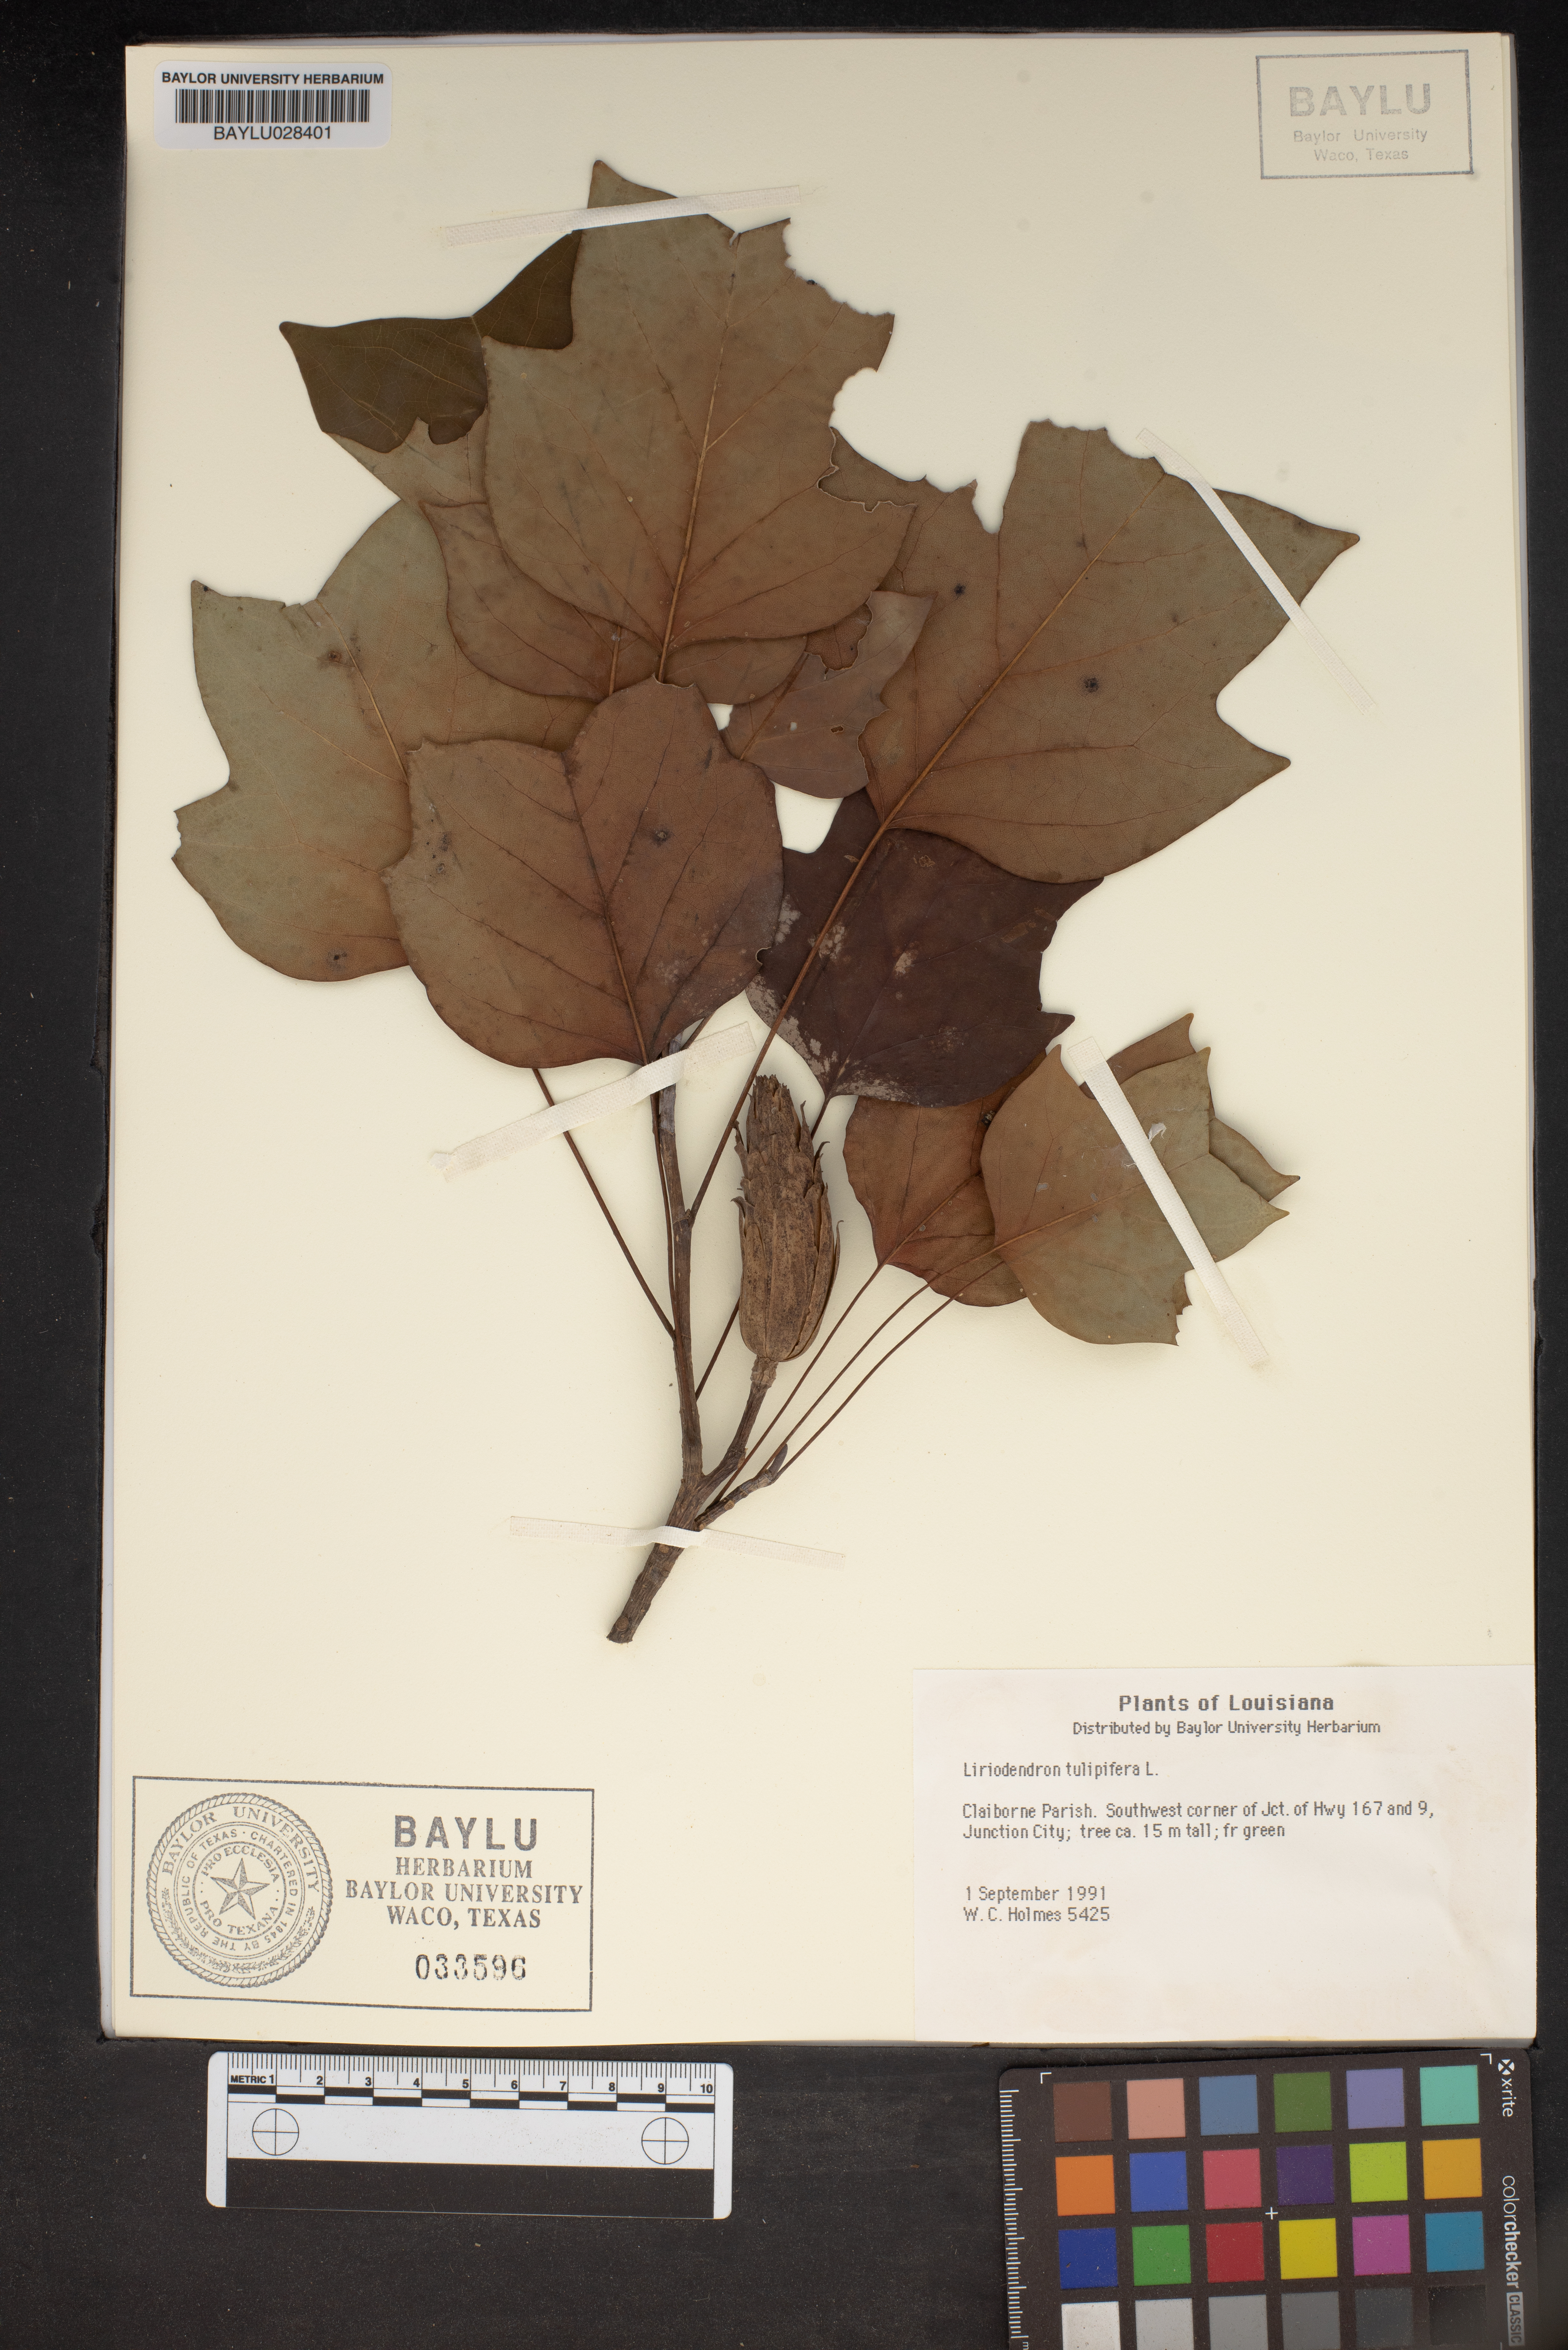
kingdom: Plantae
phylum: Tracheophyta
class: Magnoliopsida
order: Magnoliales
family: Magnoliaceae
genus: Liriodendron
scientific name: Liriodendron tulipifera
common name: Tulip tree
